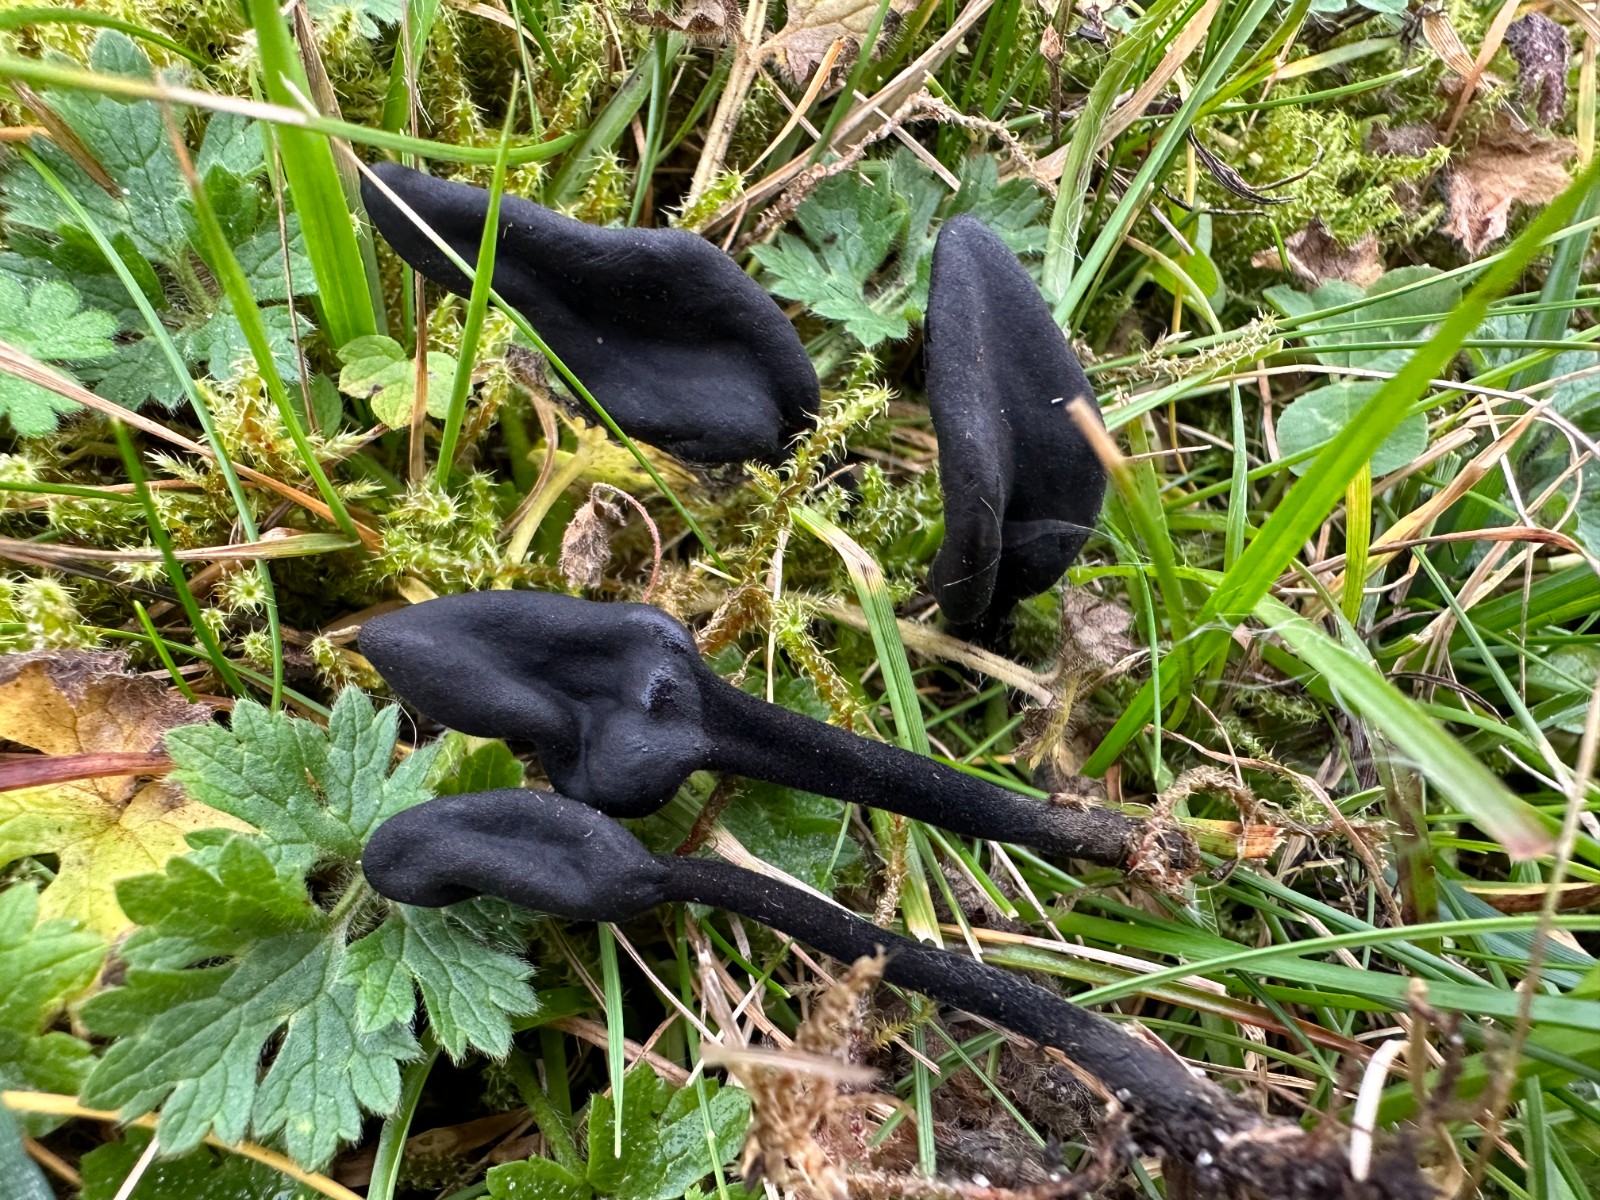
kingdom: Fungi
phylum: Ascomycota
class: Geoglossomycetes
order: Geoglossales
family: Geoglossaceae
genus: Trichoglossum
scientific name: Trichoglossum
